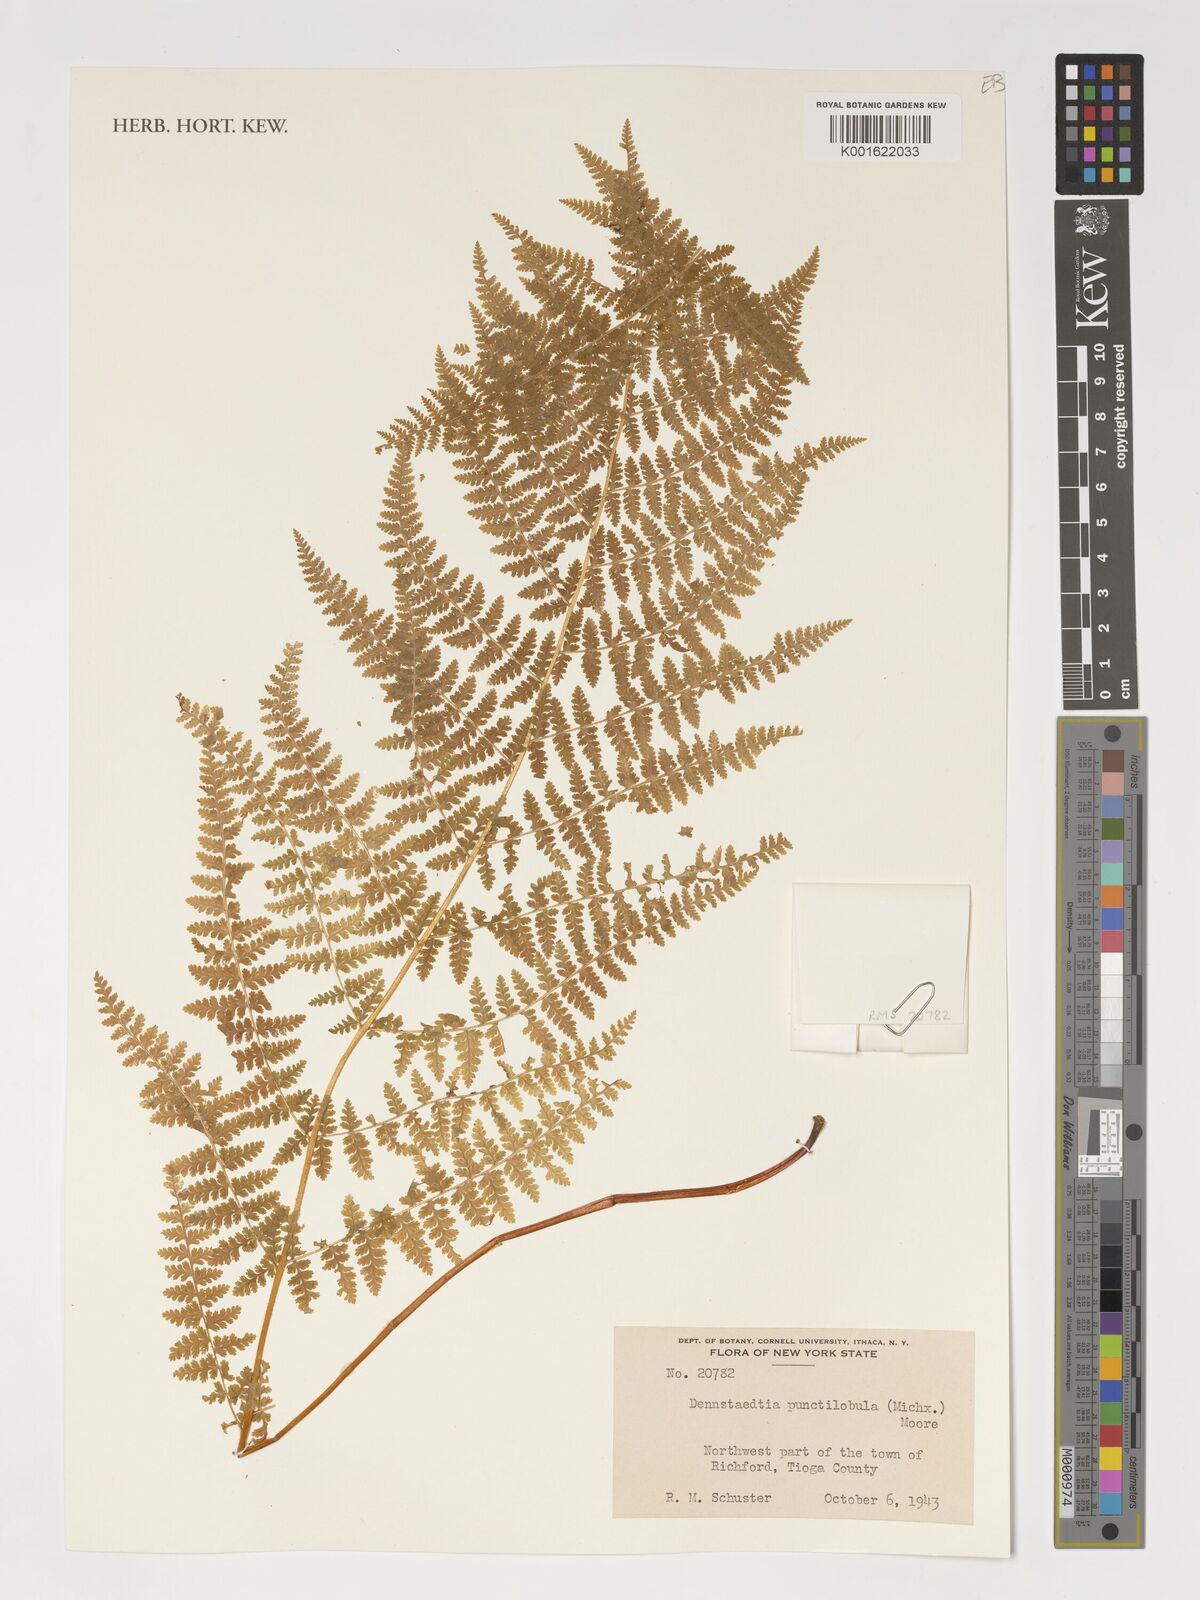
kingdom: Plantae
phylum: Tracheophyta
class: Polypodiopsida
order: Polypodiales
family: Dennstaedtiaceae
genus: Sitobolium
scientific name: Sitobolium punctilobum
